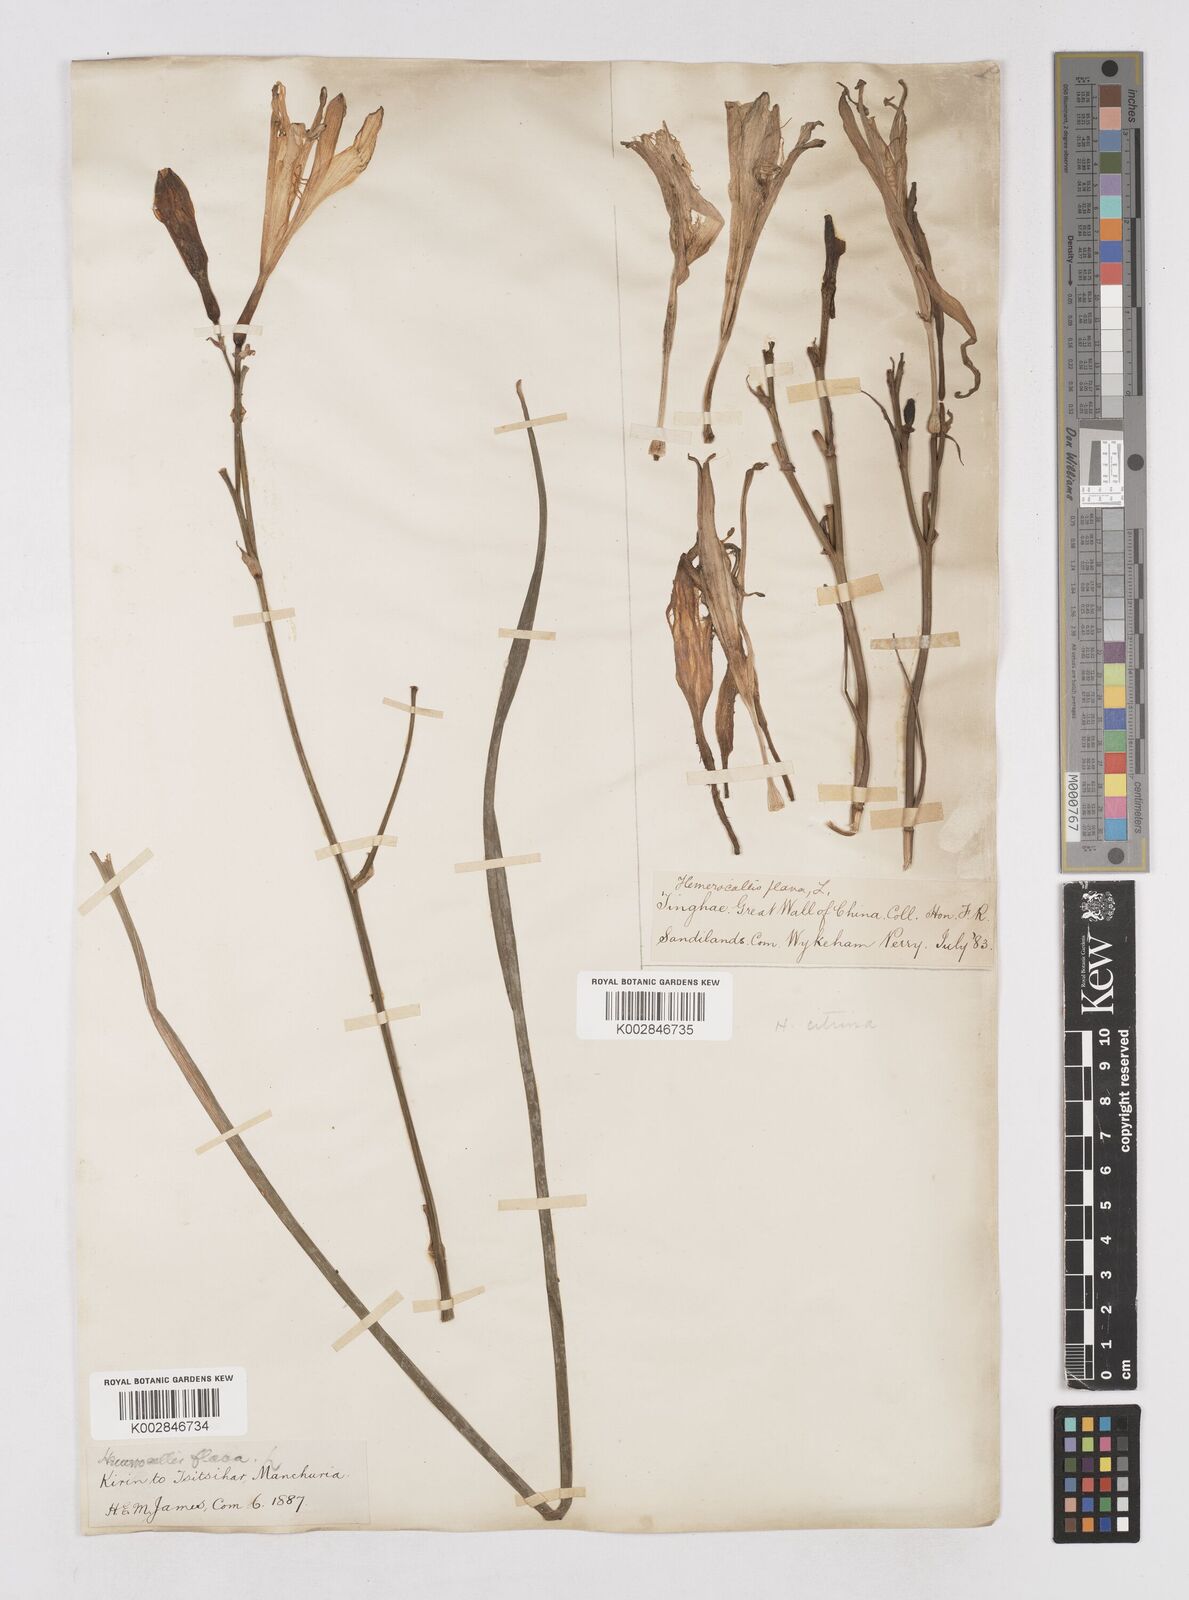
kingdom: Plantae
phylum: Tracheophyta
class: Liliopsida
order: Asparagales
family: Asphodelaceae
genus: Hemerocallis
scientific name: Hemerocallis
